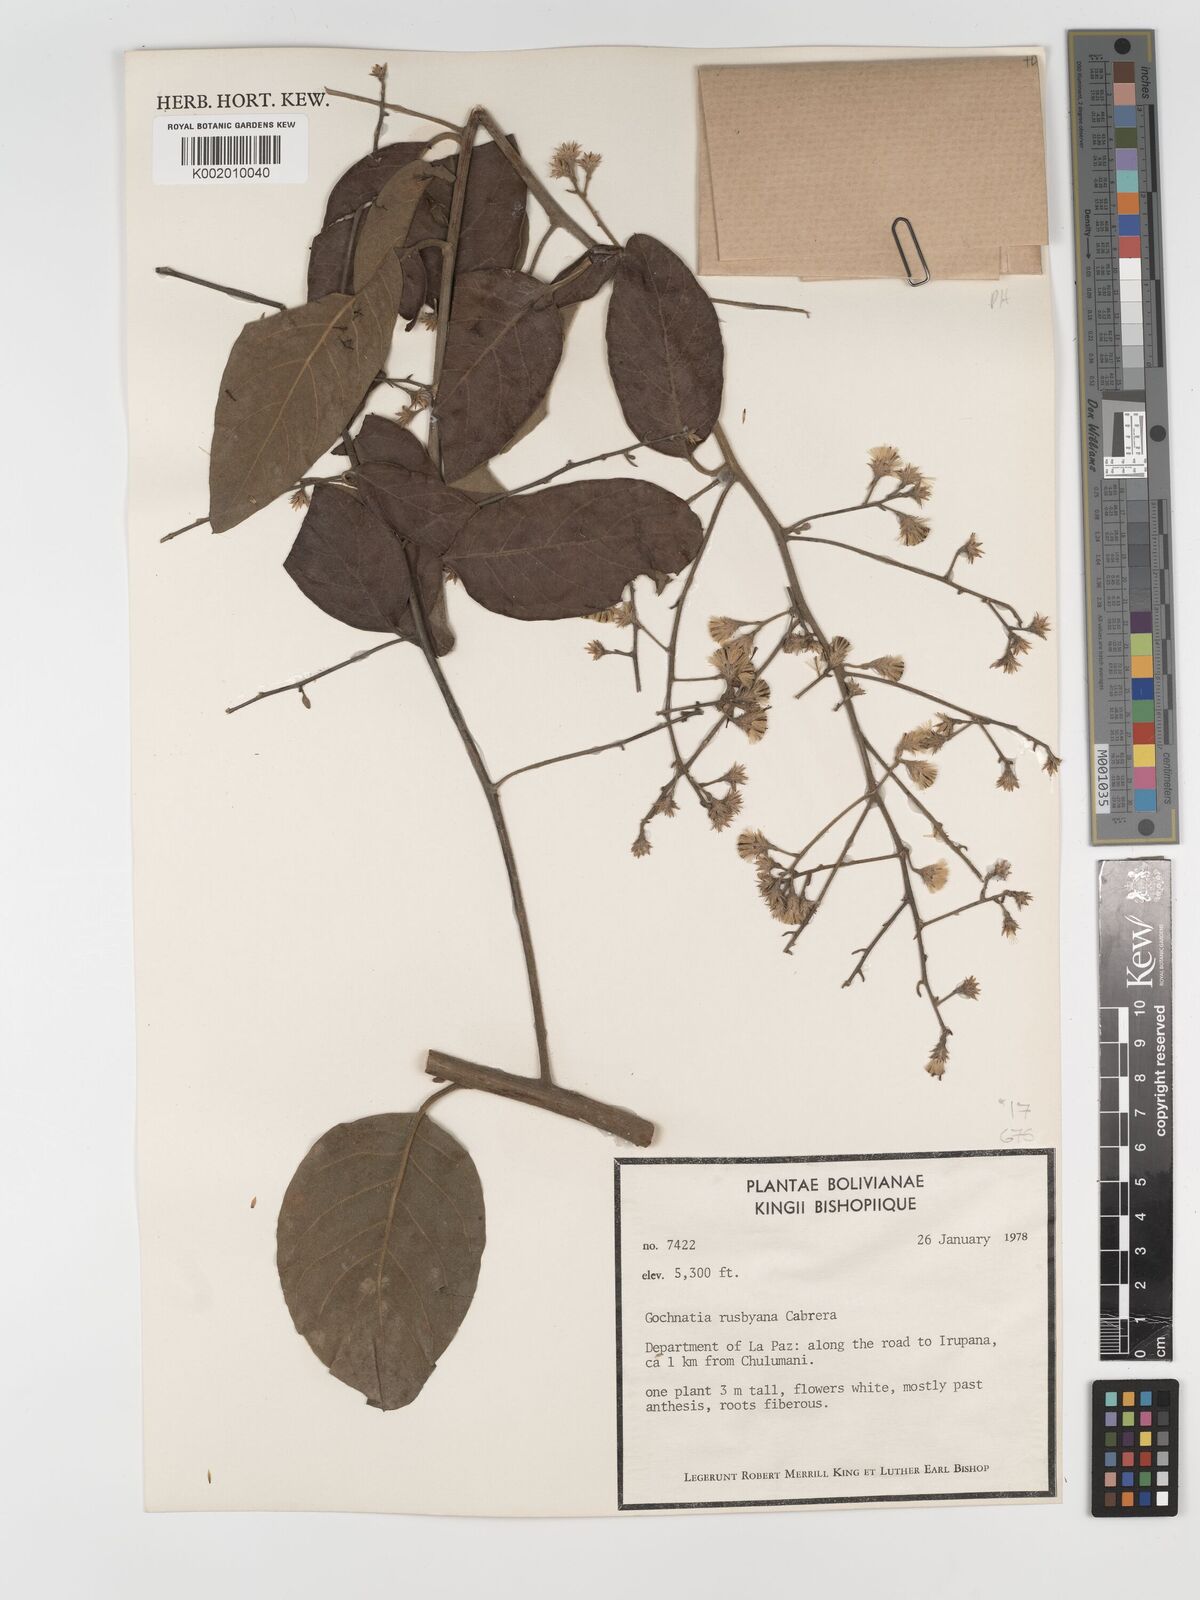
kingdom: Plantae
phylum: Tracheophyta
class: Magnoliopsida
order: Asterales
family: Asteraceae
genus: Moquiniastrum
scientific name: Moquiniastrum bolivianum
